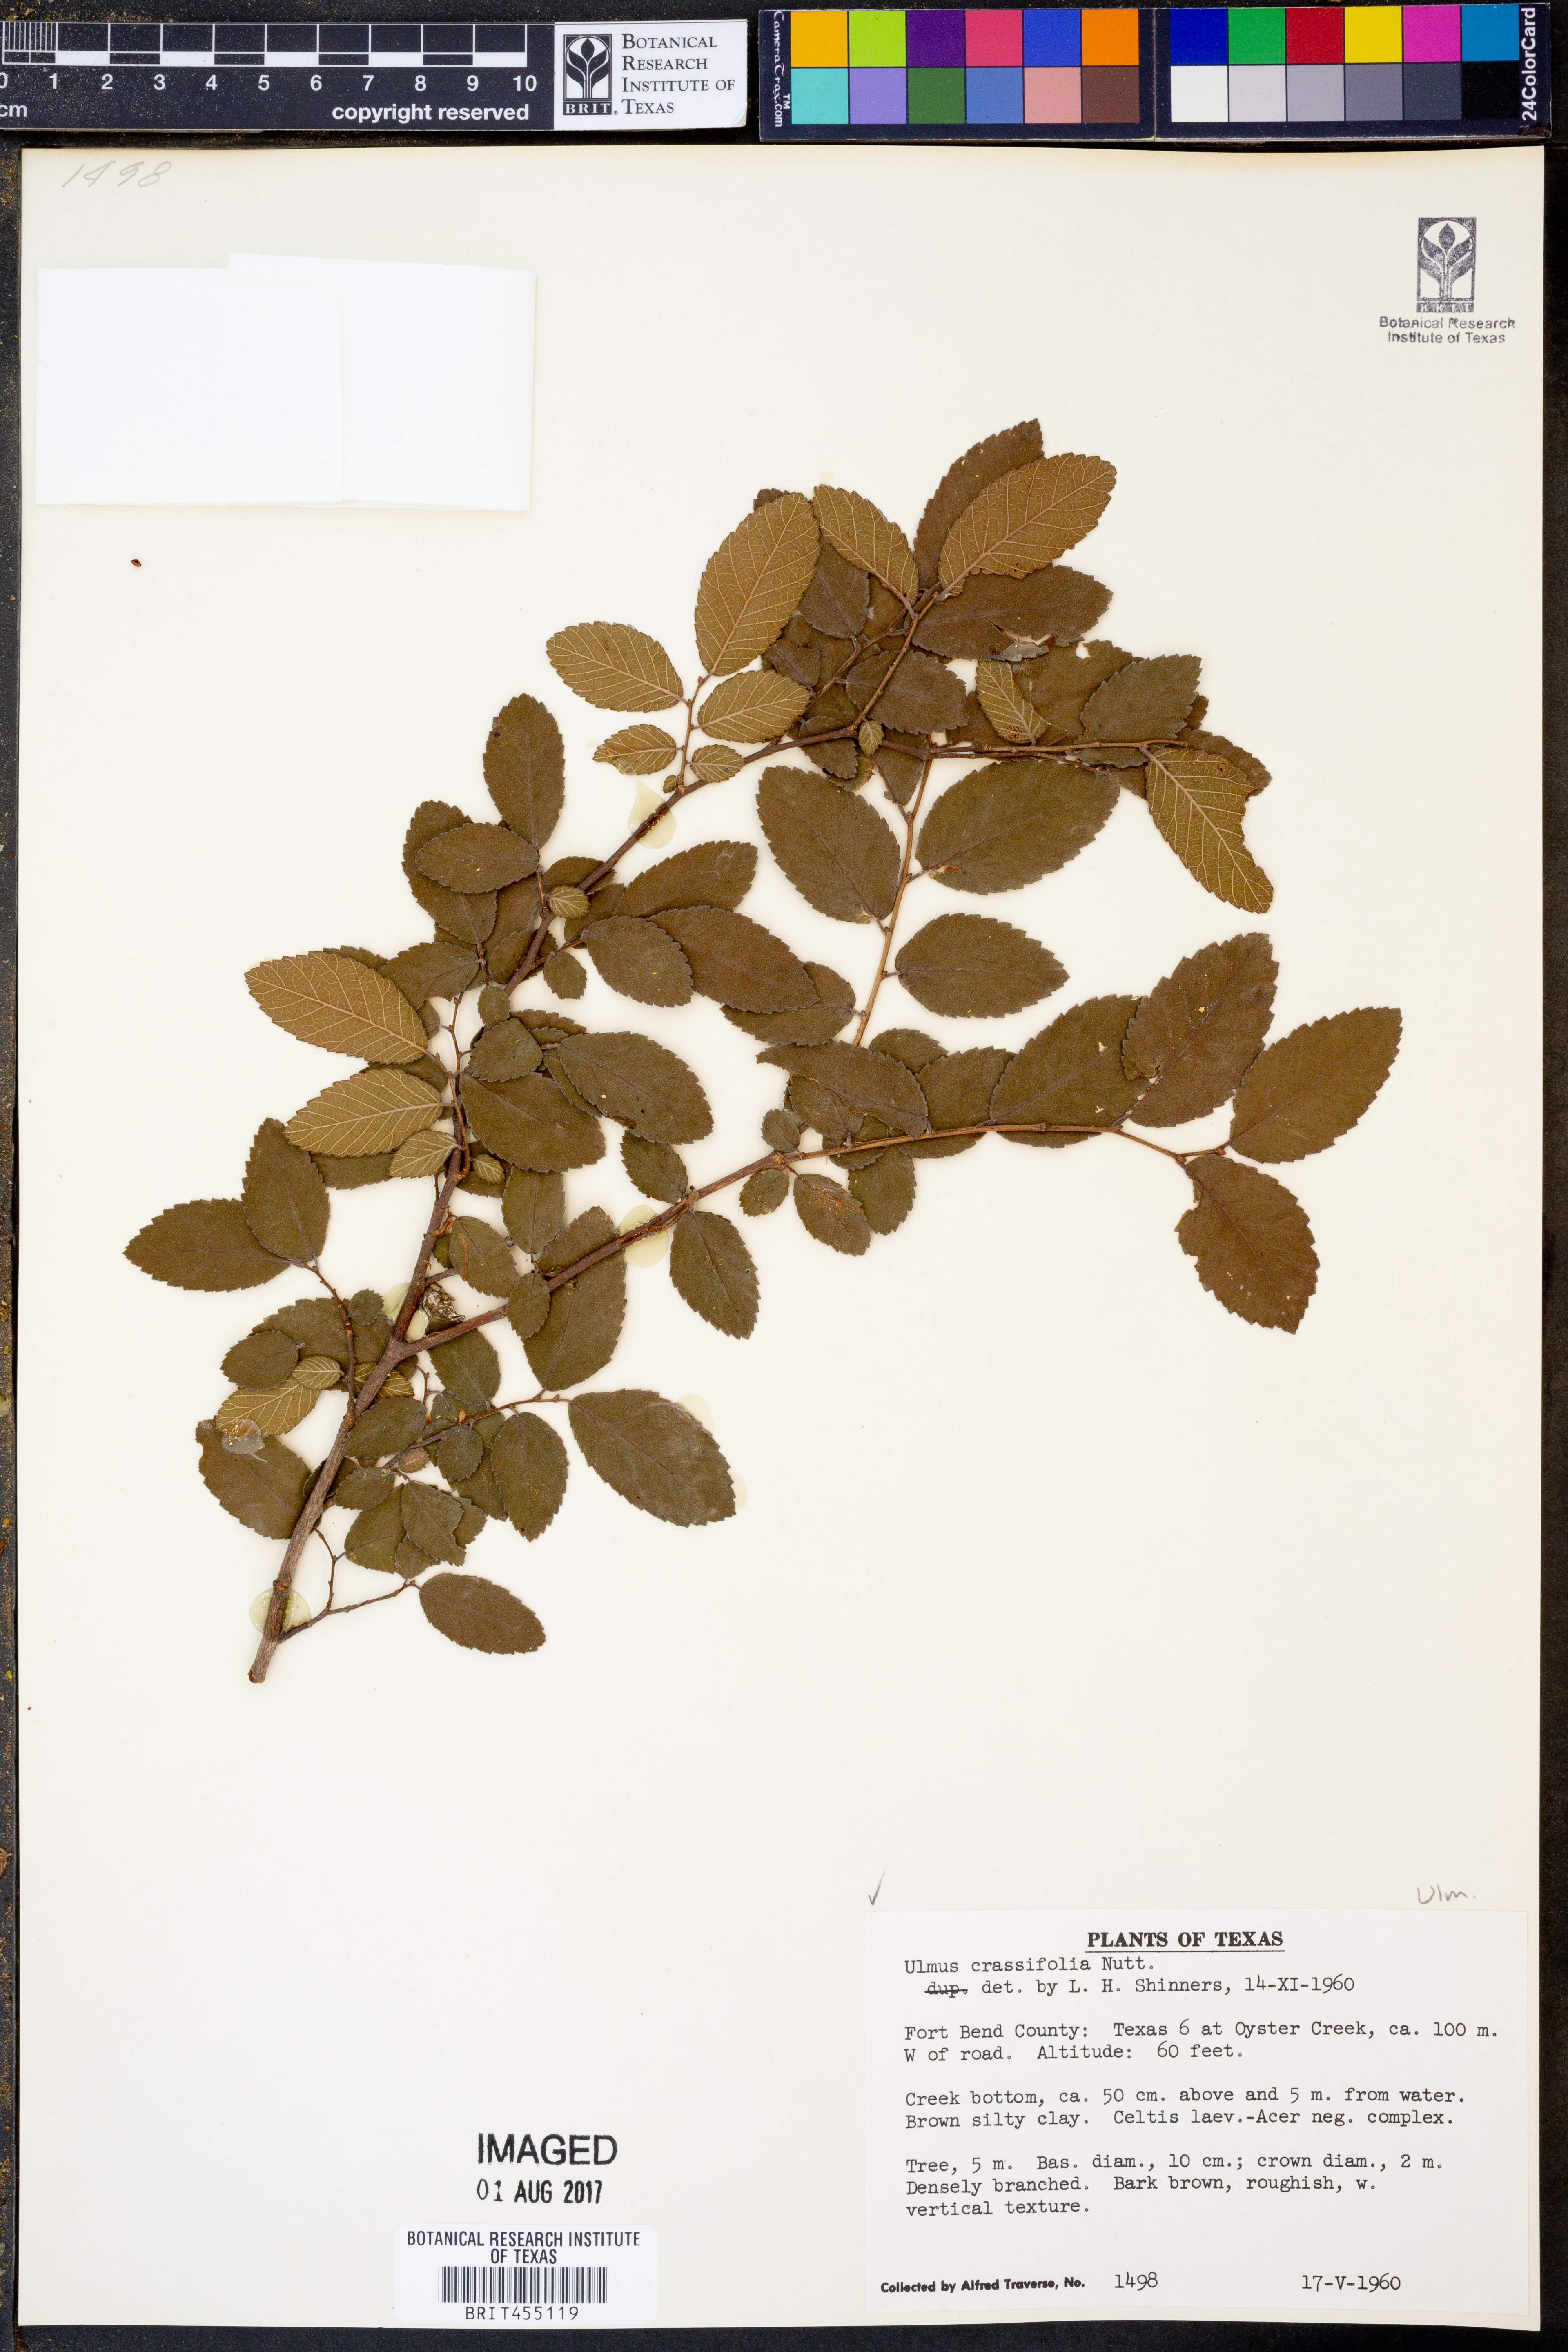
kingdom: Plantae
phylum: Tracheophyta
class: Magnoliopsida
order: Rosales
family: Ulmaceae
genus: Ulmus
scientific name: Ulmus crassifolia
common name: Basket elm
